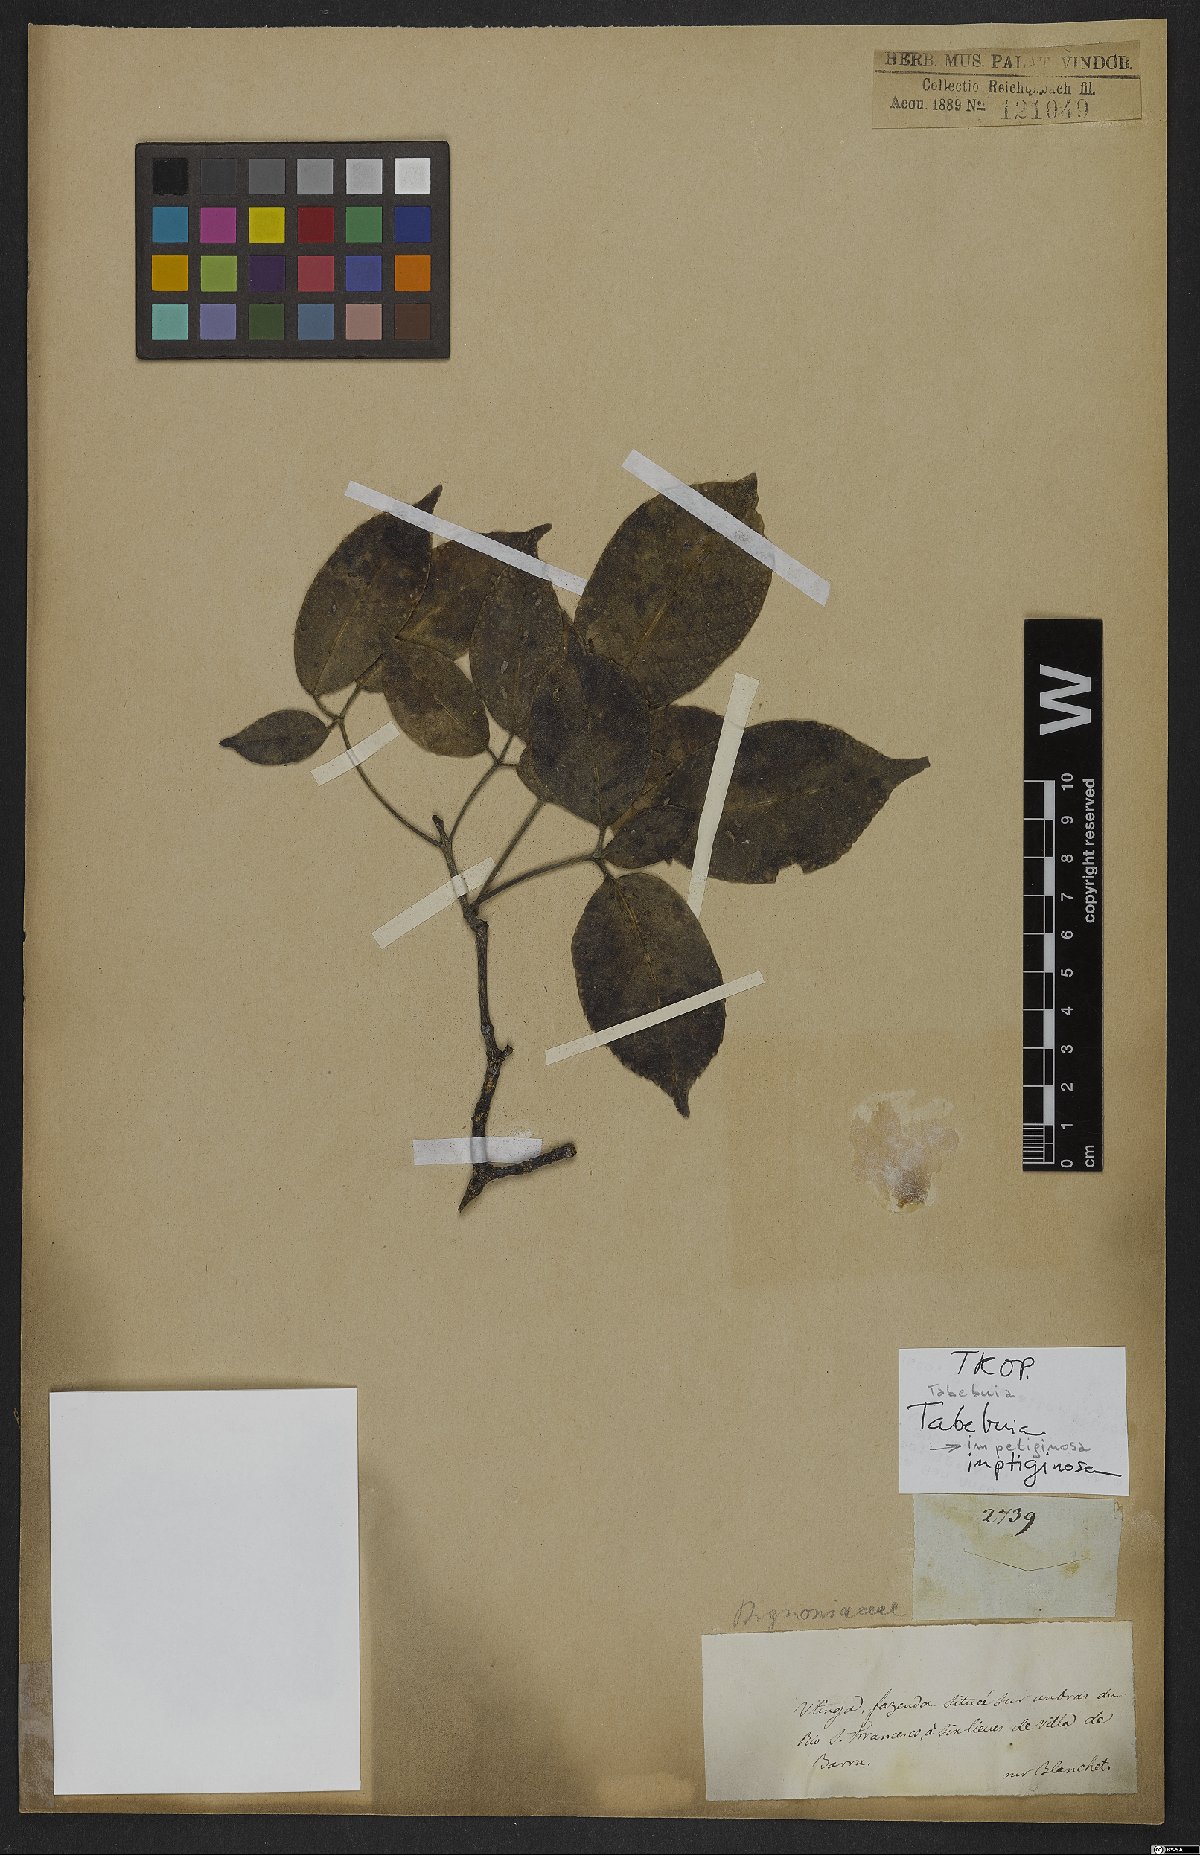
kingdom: Plantae
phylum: Tracheophyta
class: Magnoliopsida
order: Lamiales
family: Bignoniaceae
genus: Handroanthus
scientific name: Handroanthus impetiginosum
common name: Pink trumpet tree
